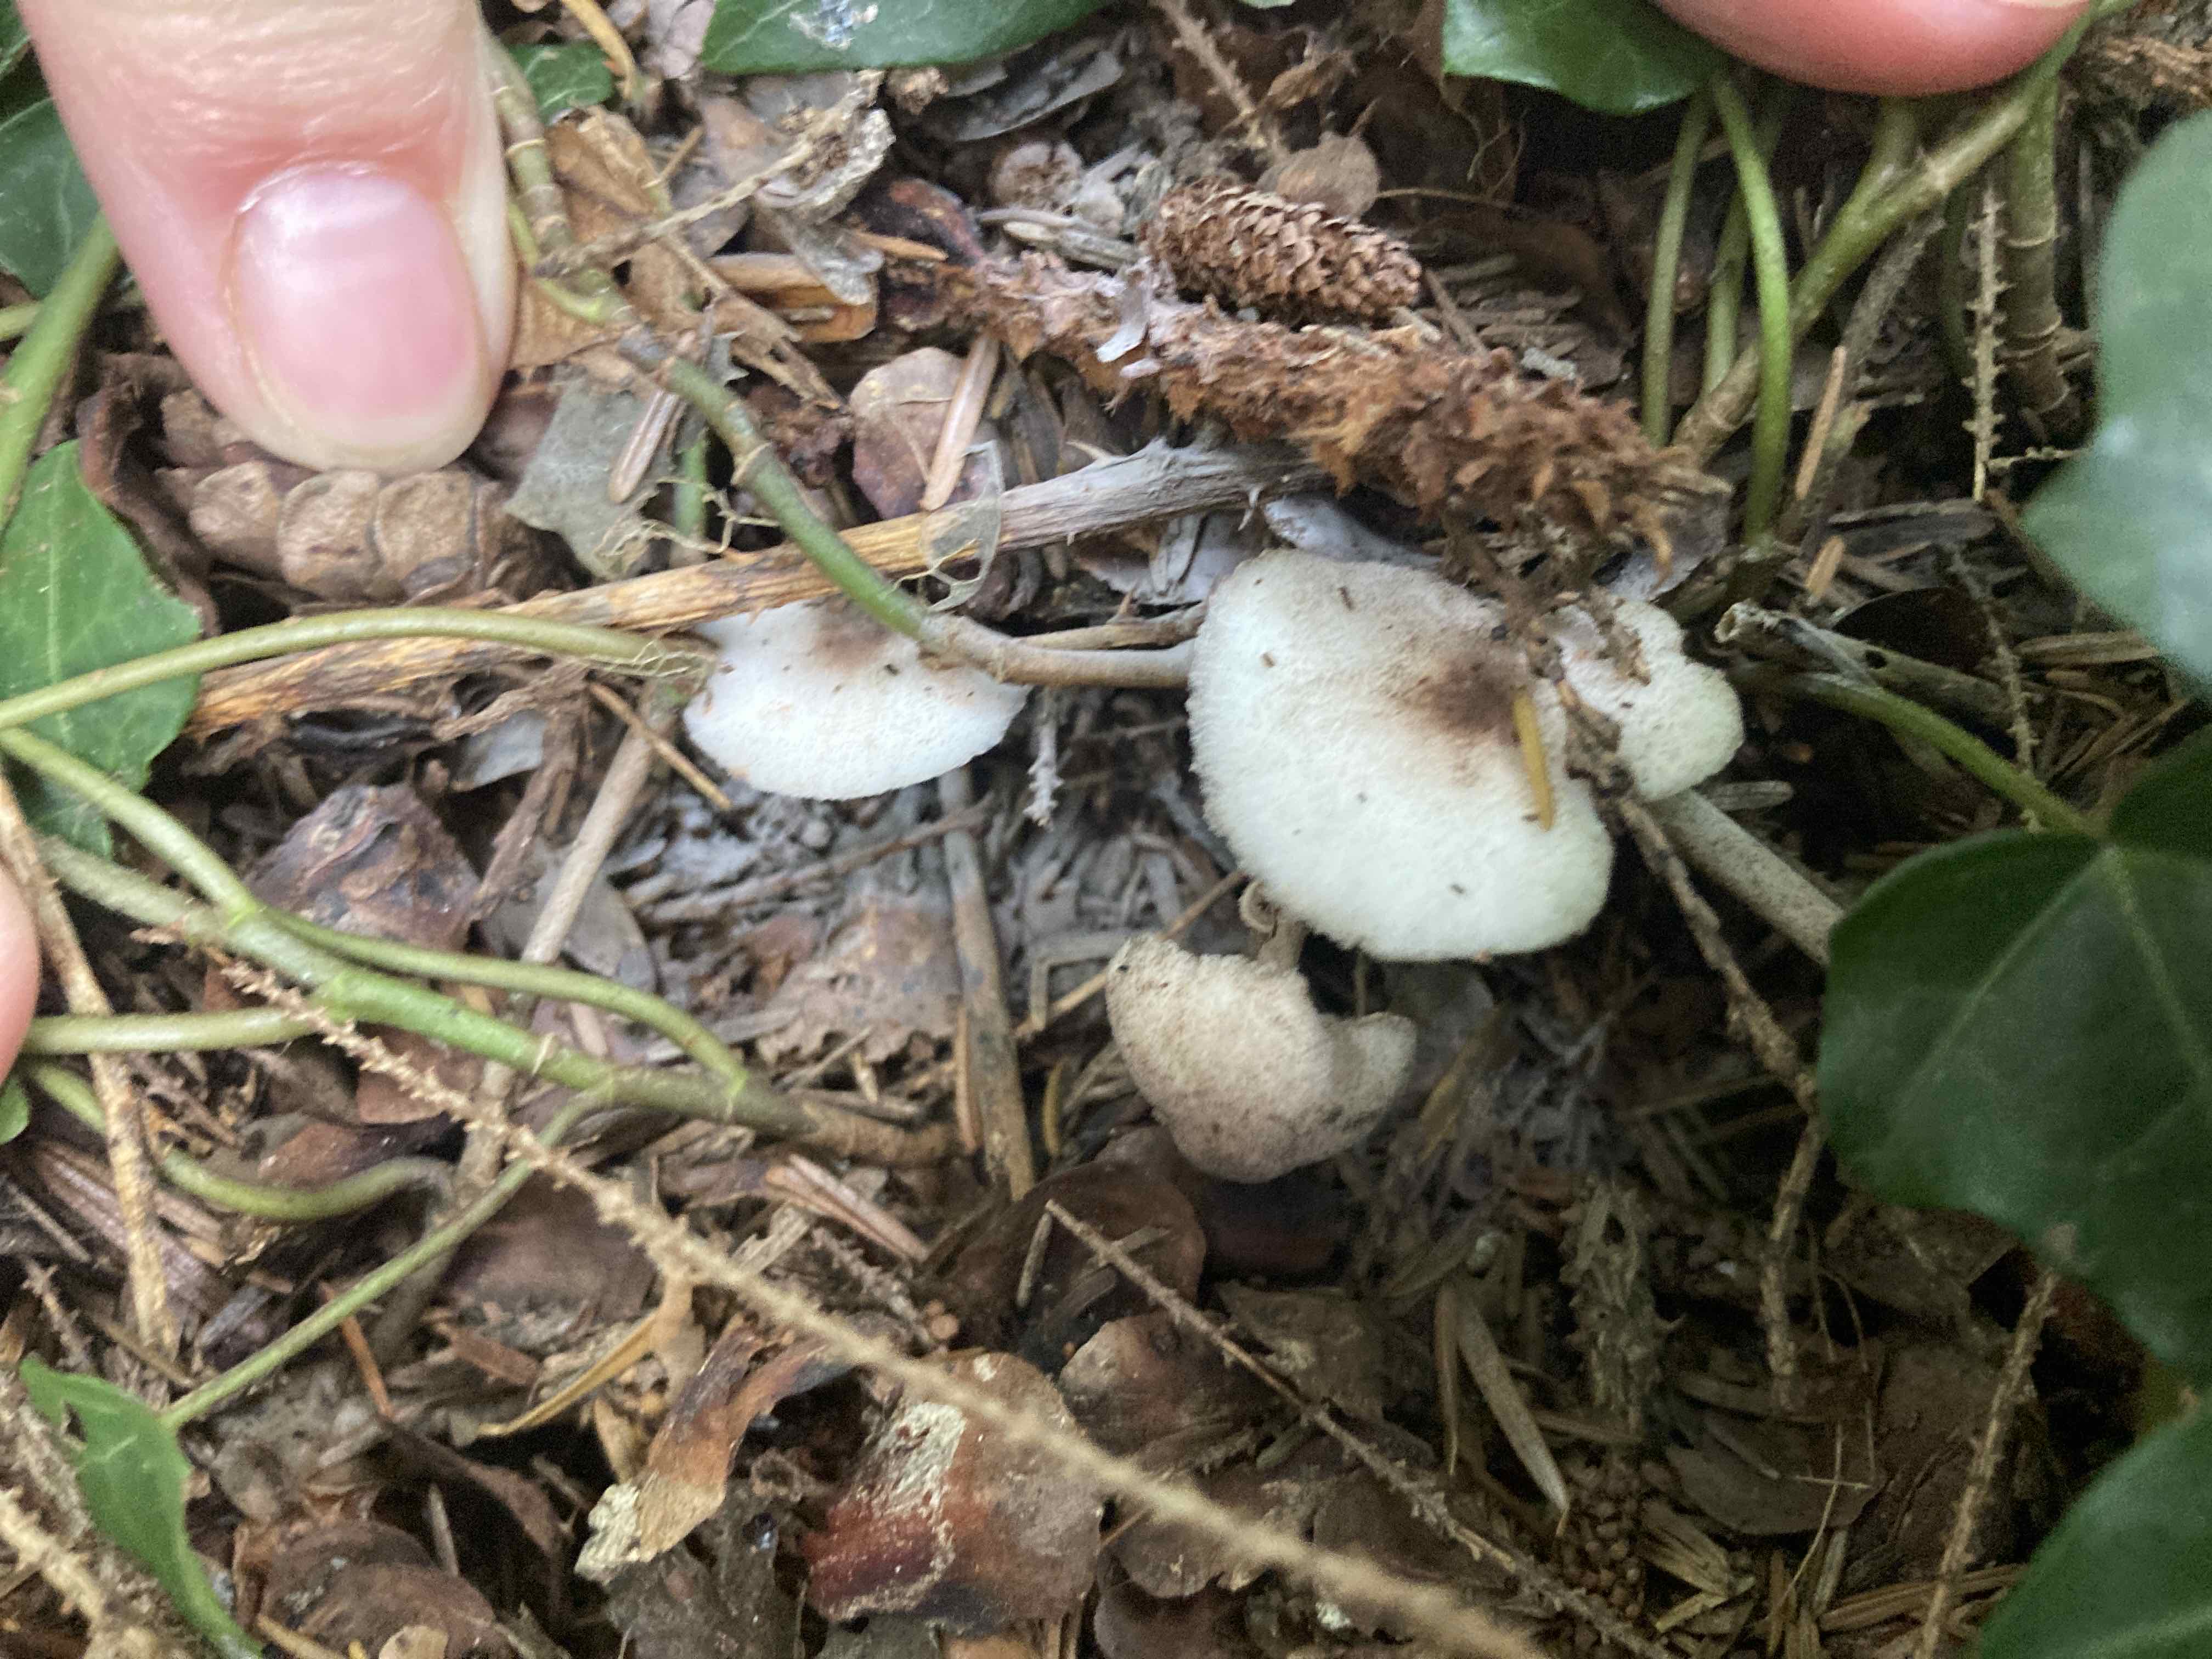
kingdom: Fungi
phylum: Basidiomycota
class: Agaricomycetes
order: Agaricales
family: Agaricaceae
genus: Leucoagaricus
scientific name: Leucoagaricus georginae
